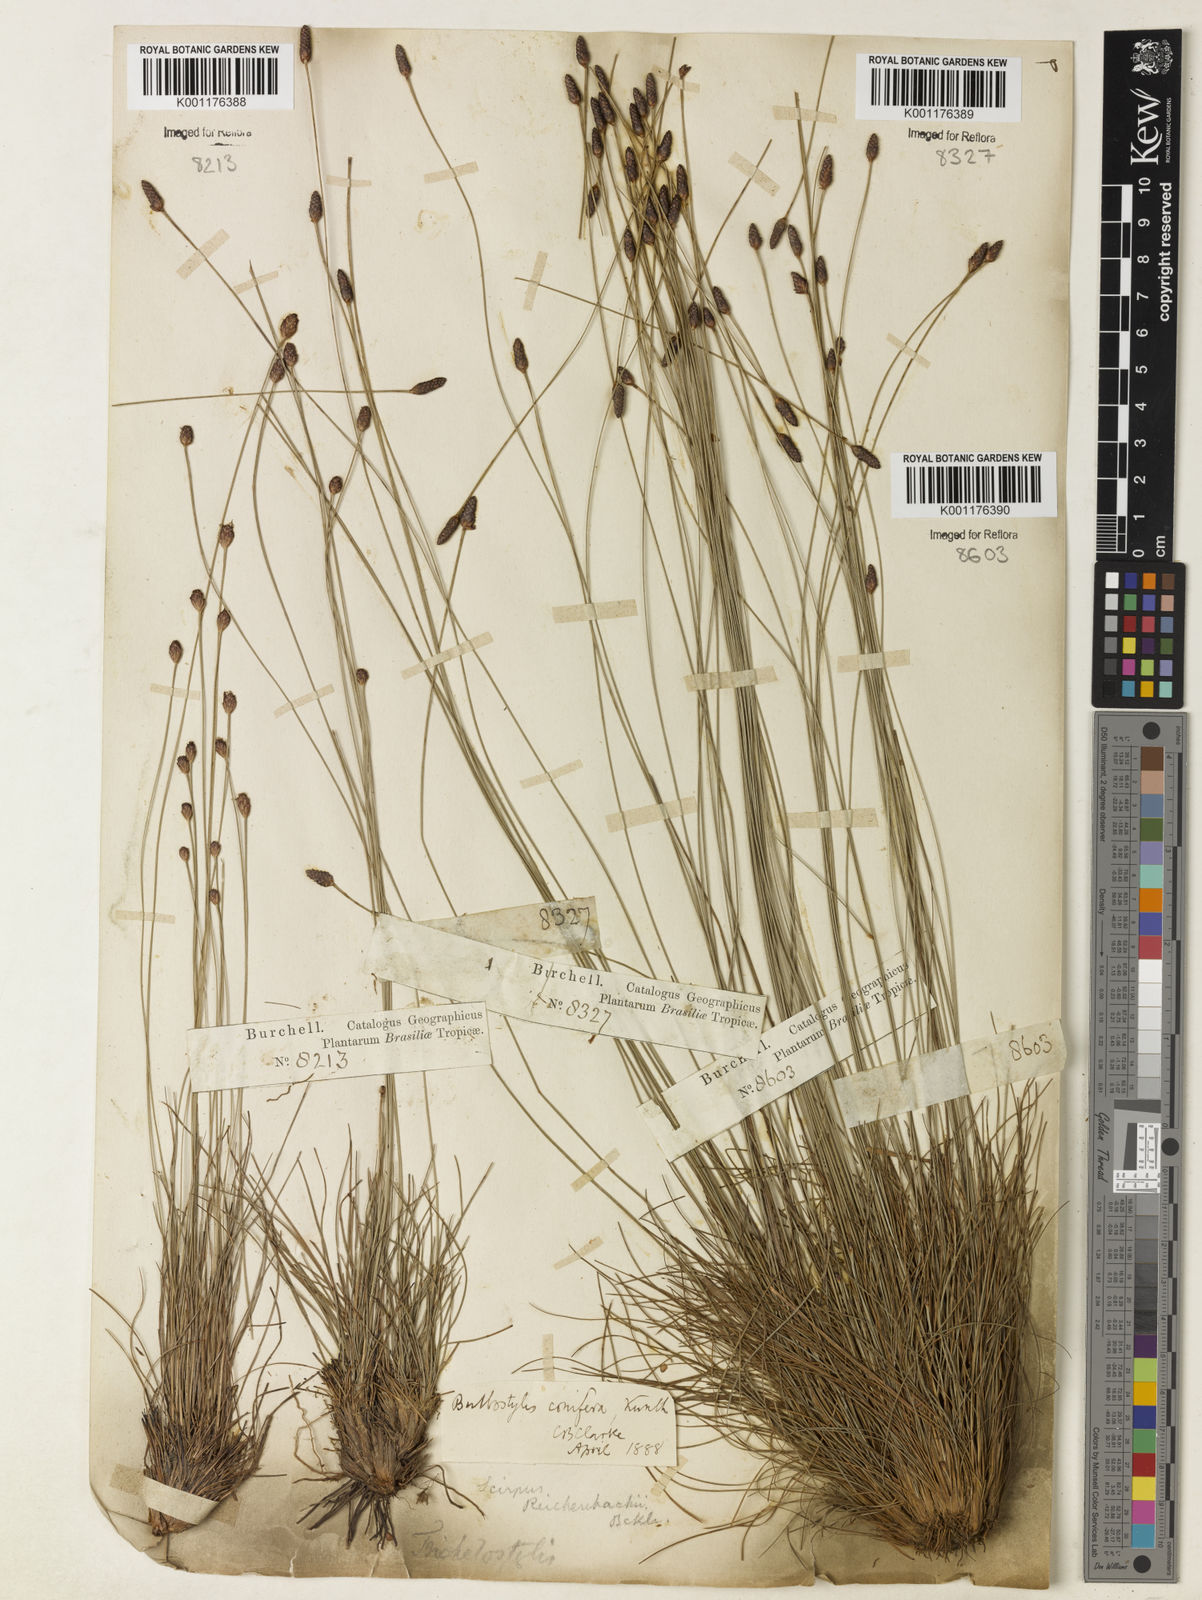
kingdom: Plantae
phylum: Tracheophyta
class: Liliopsida
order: Poales
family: Cyperaceae
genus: Bulbostylis
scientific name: Bulbostylis conifera
